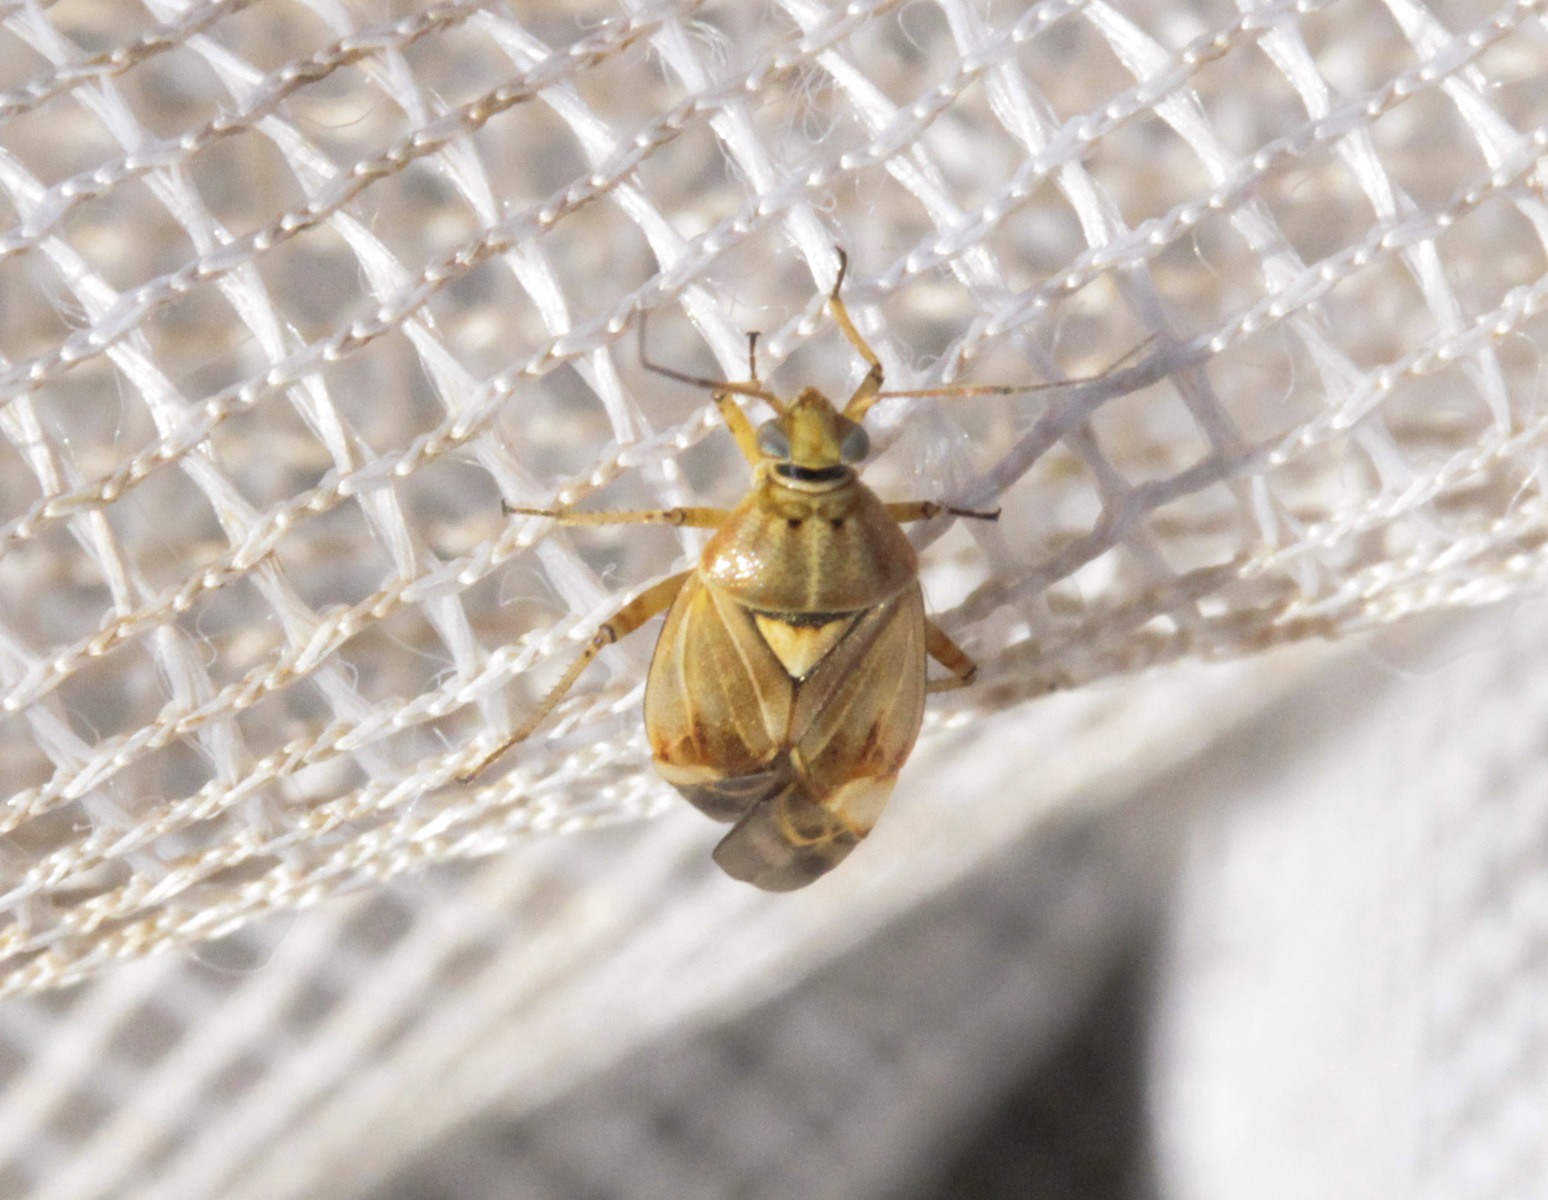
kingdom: Animalia
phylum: Arthropoda
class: Insecta
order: Hemiptera
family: Miridae
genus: Lygus
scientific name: Lygus pratensis
